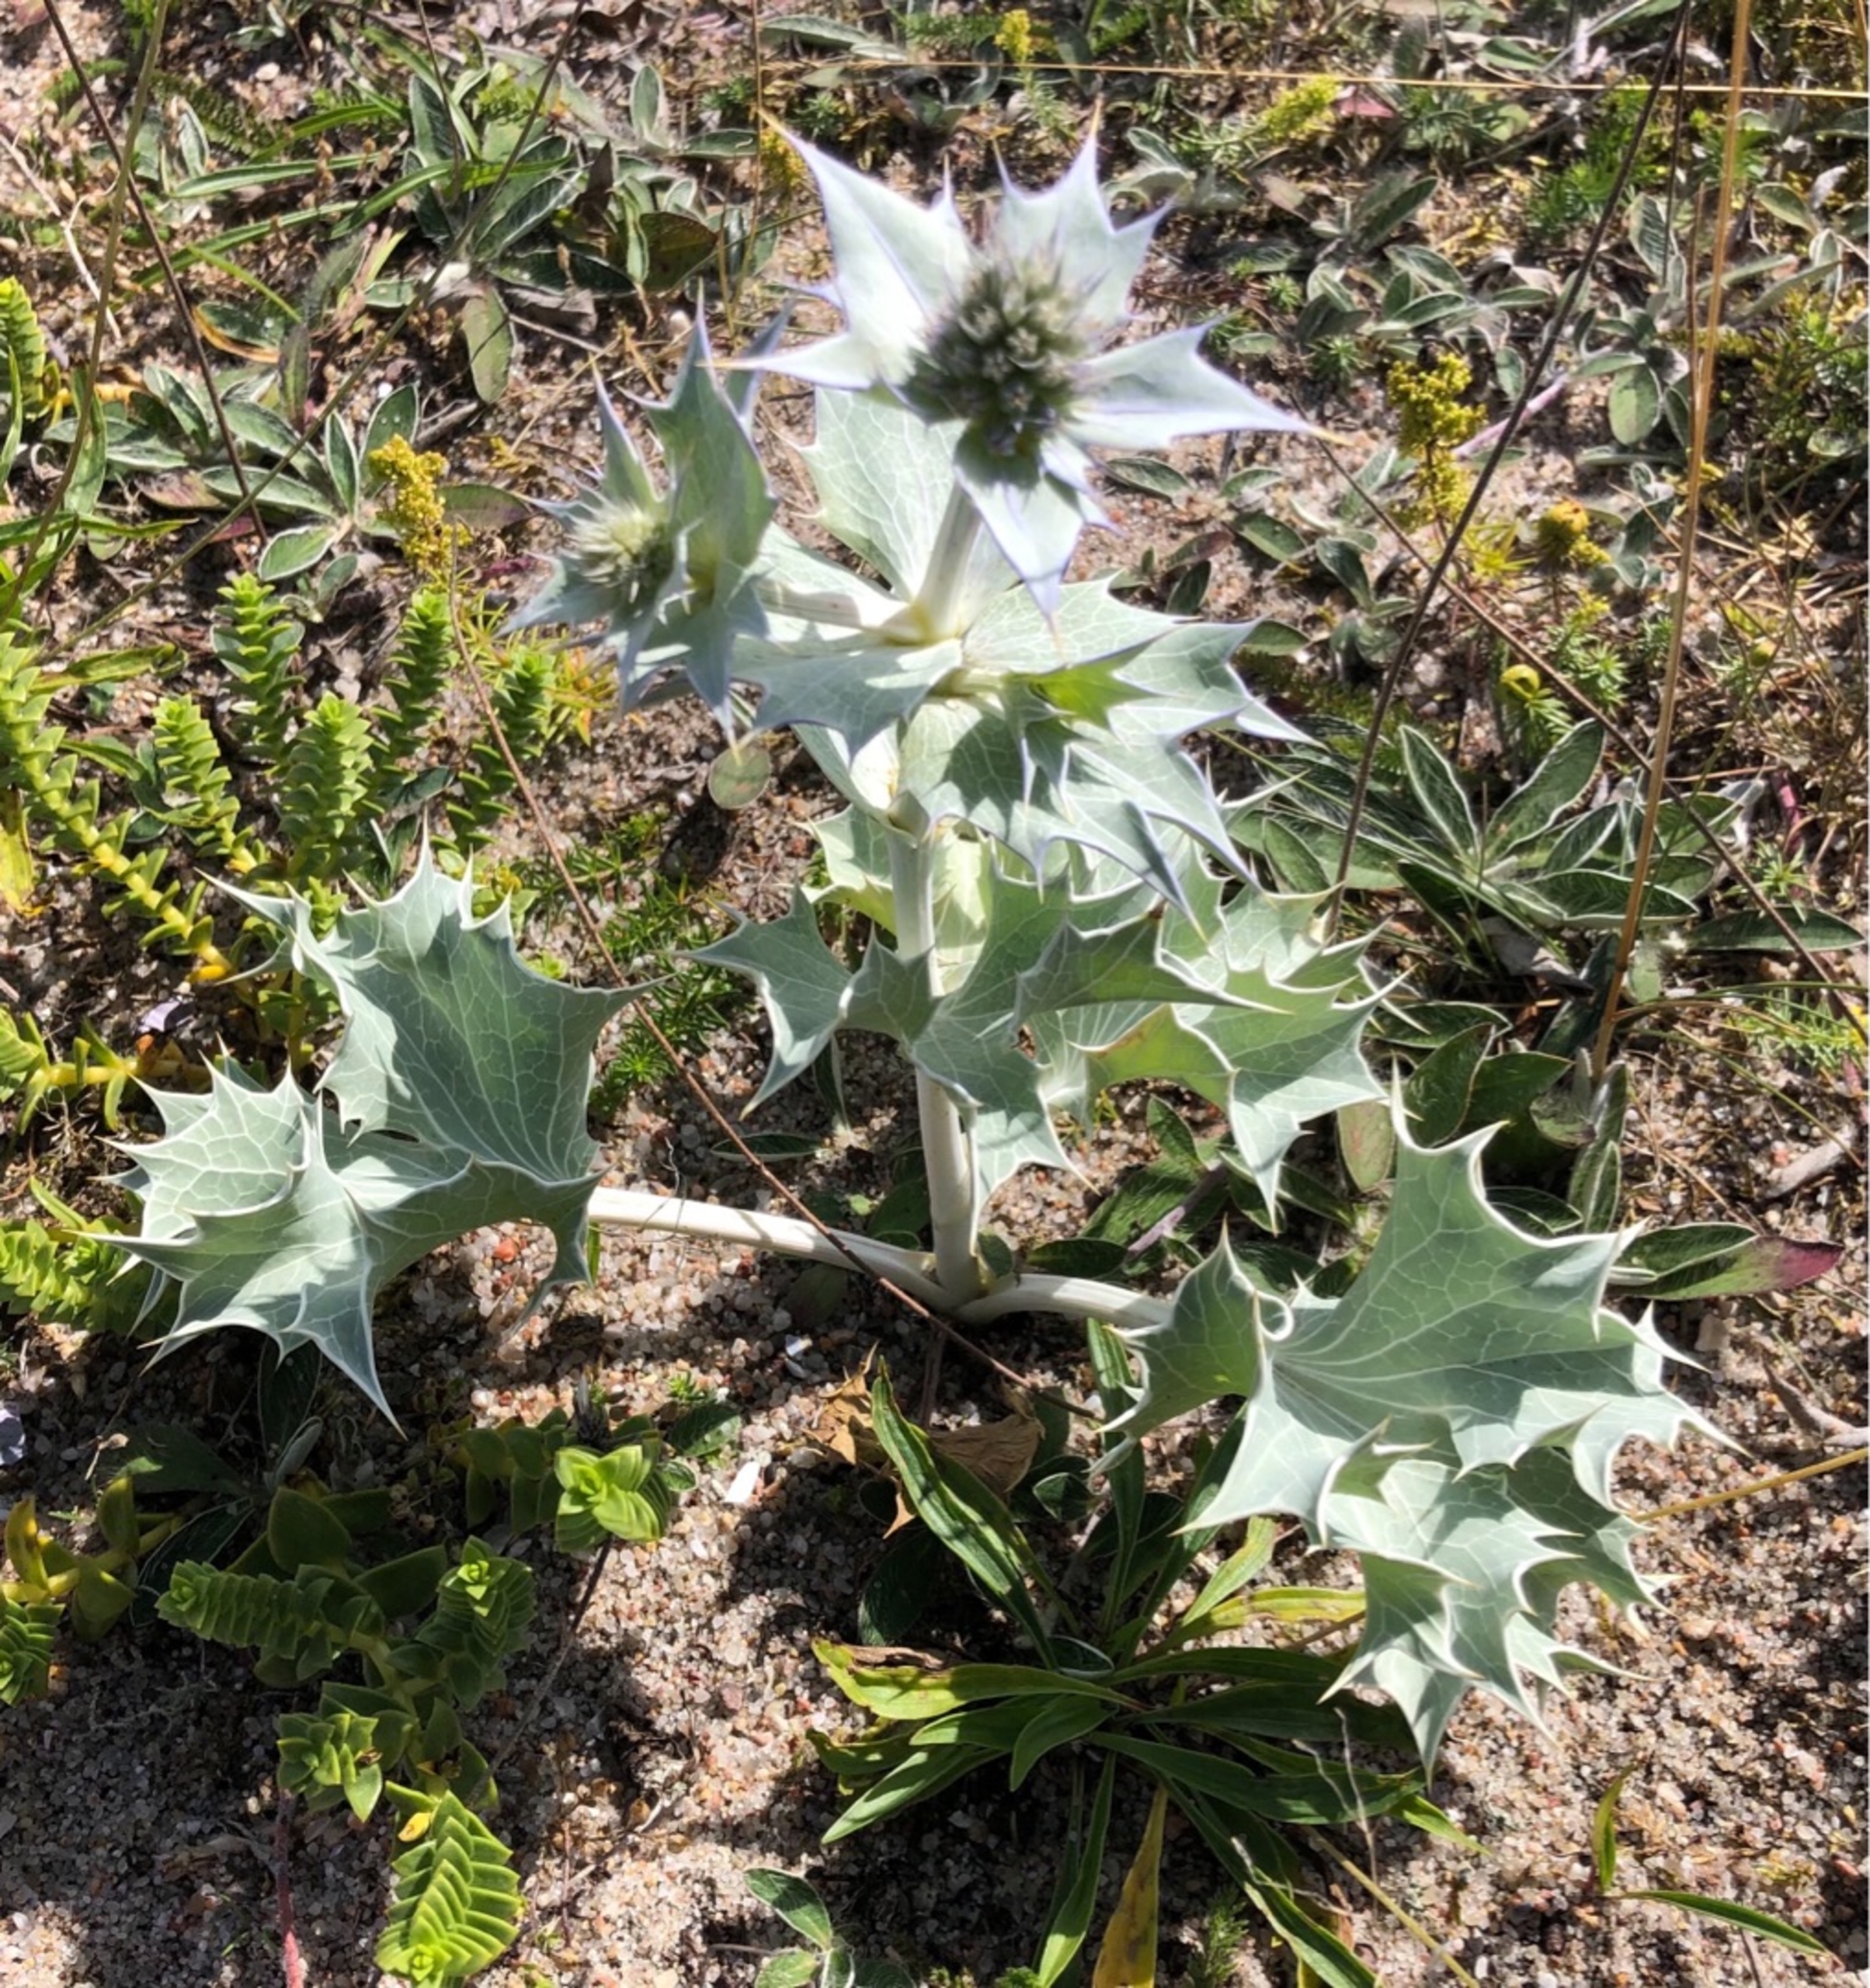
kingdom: Plantae
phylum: Tracheophyta
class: Magnoliopsida
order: Apiales
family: Apiaceae
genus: Eryngium
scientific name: Eryngium maritimum
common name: Strand-mandstro
